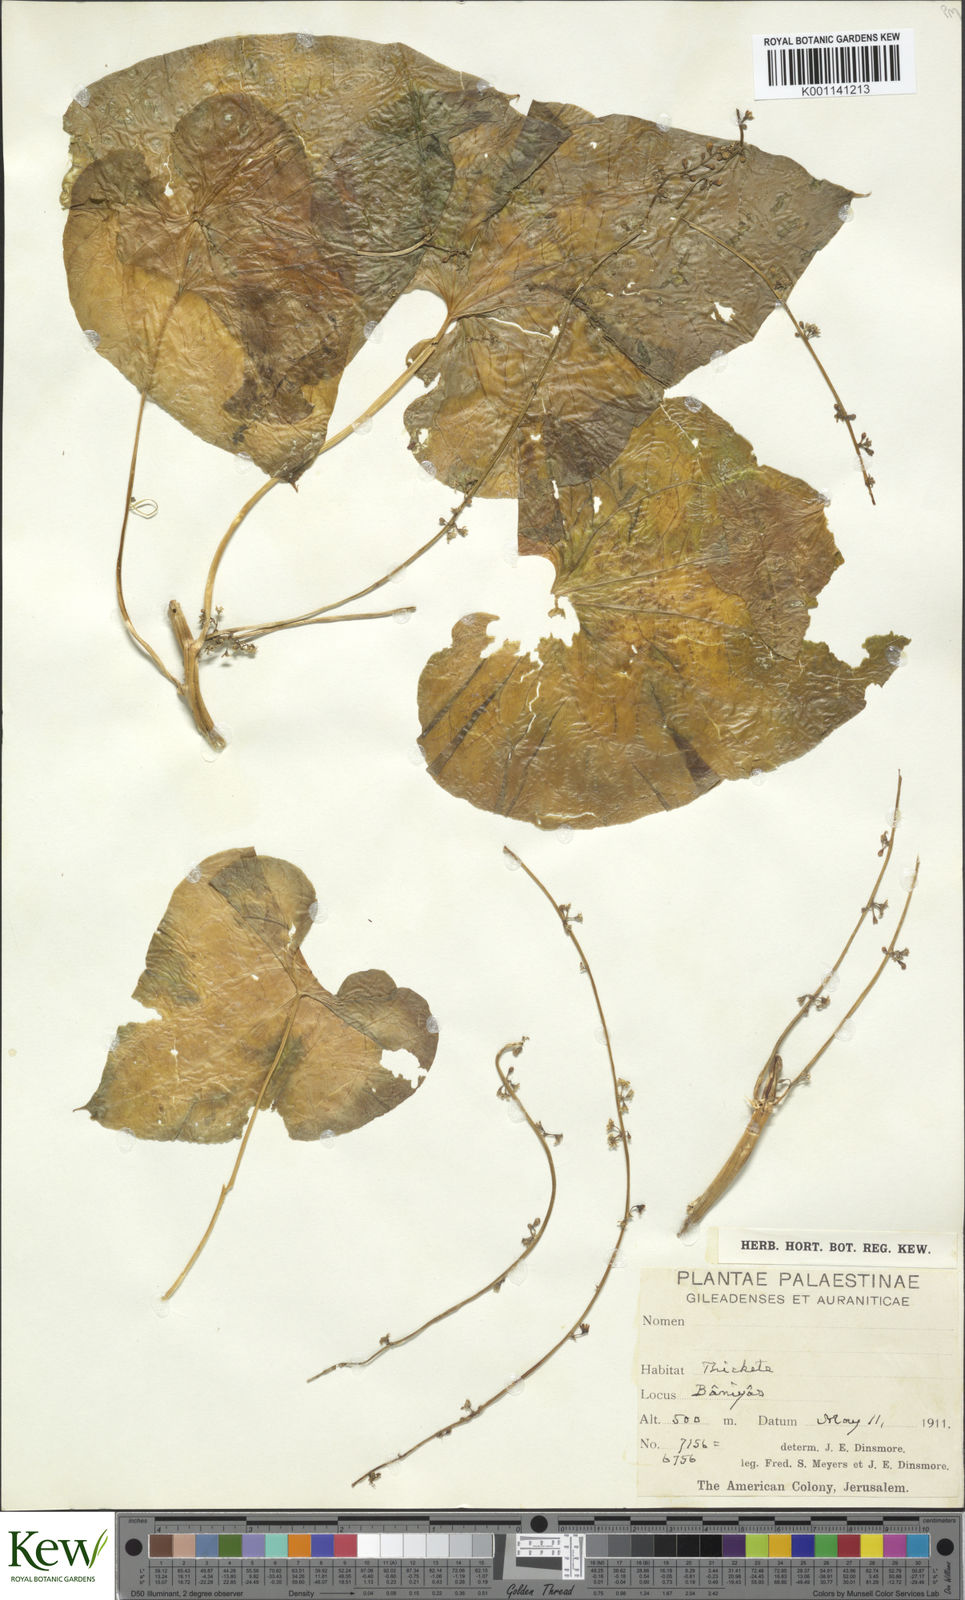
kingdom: Plantae
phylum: Tracheophyta
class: Liliopsida
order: Dioscoreales
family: Dioscoreaceae
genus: Dioscorea
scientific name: Dioscorea communis
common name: Black-bindweed
